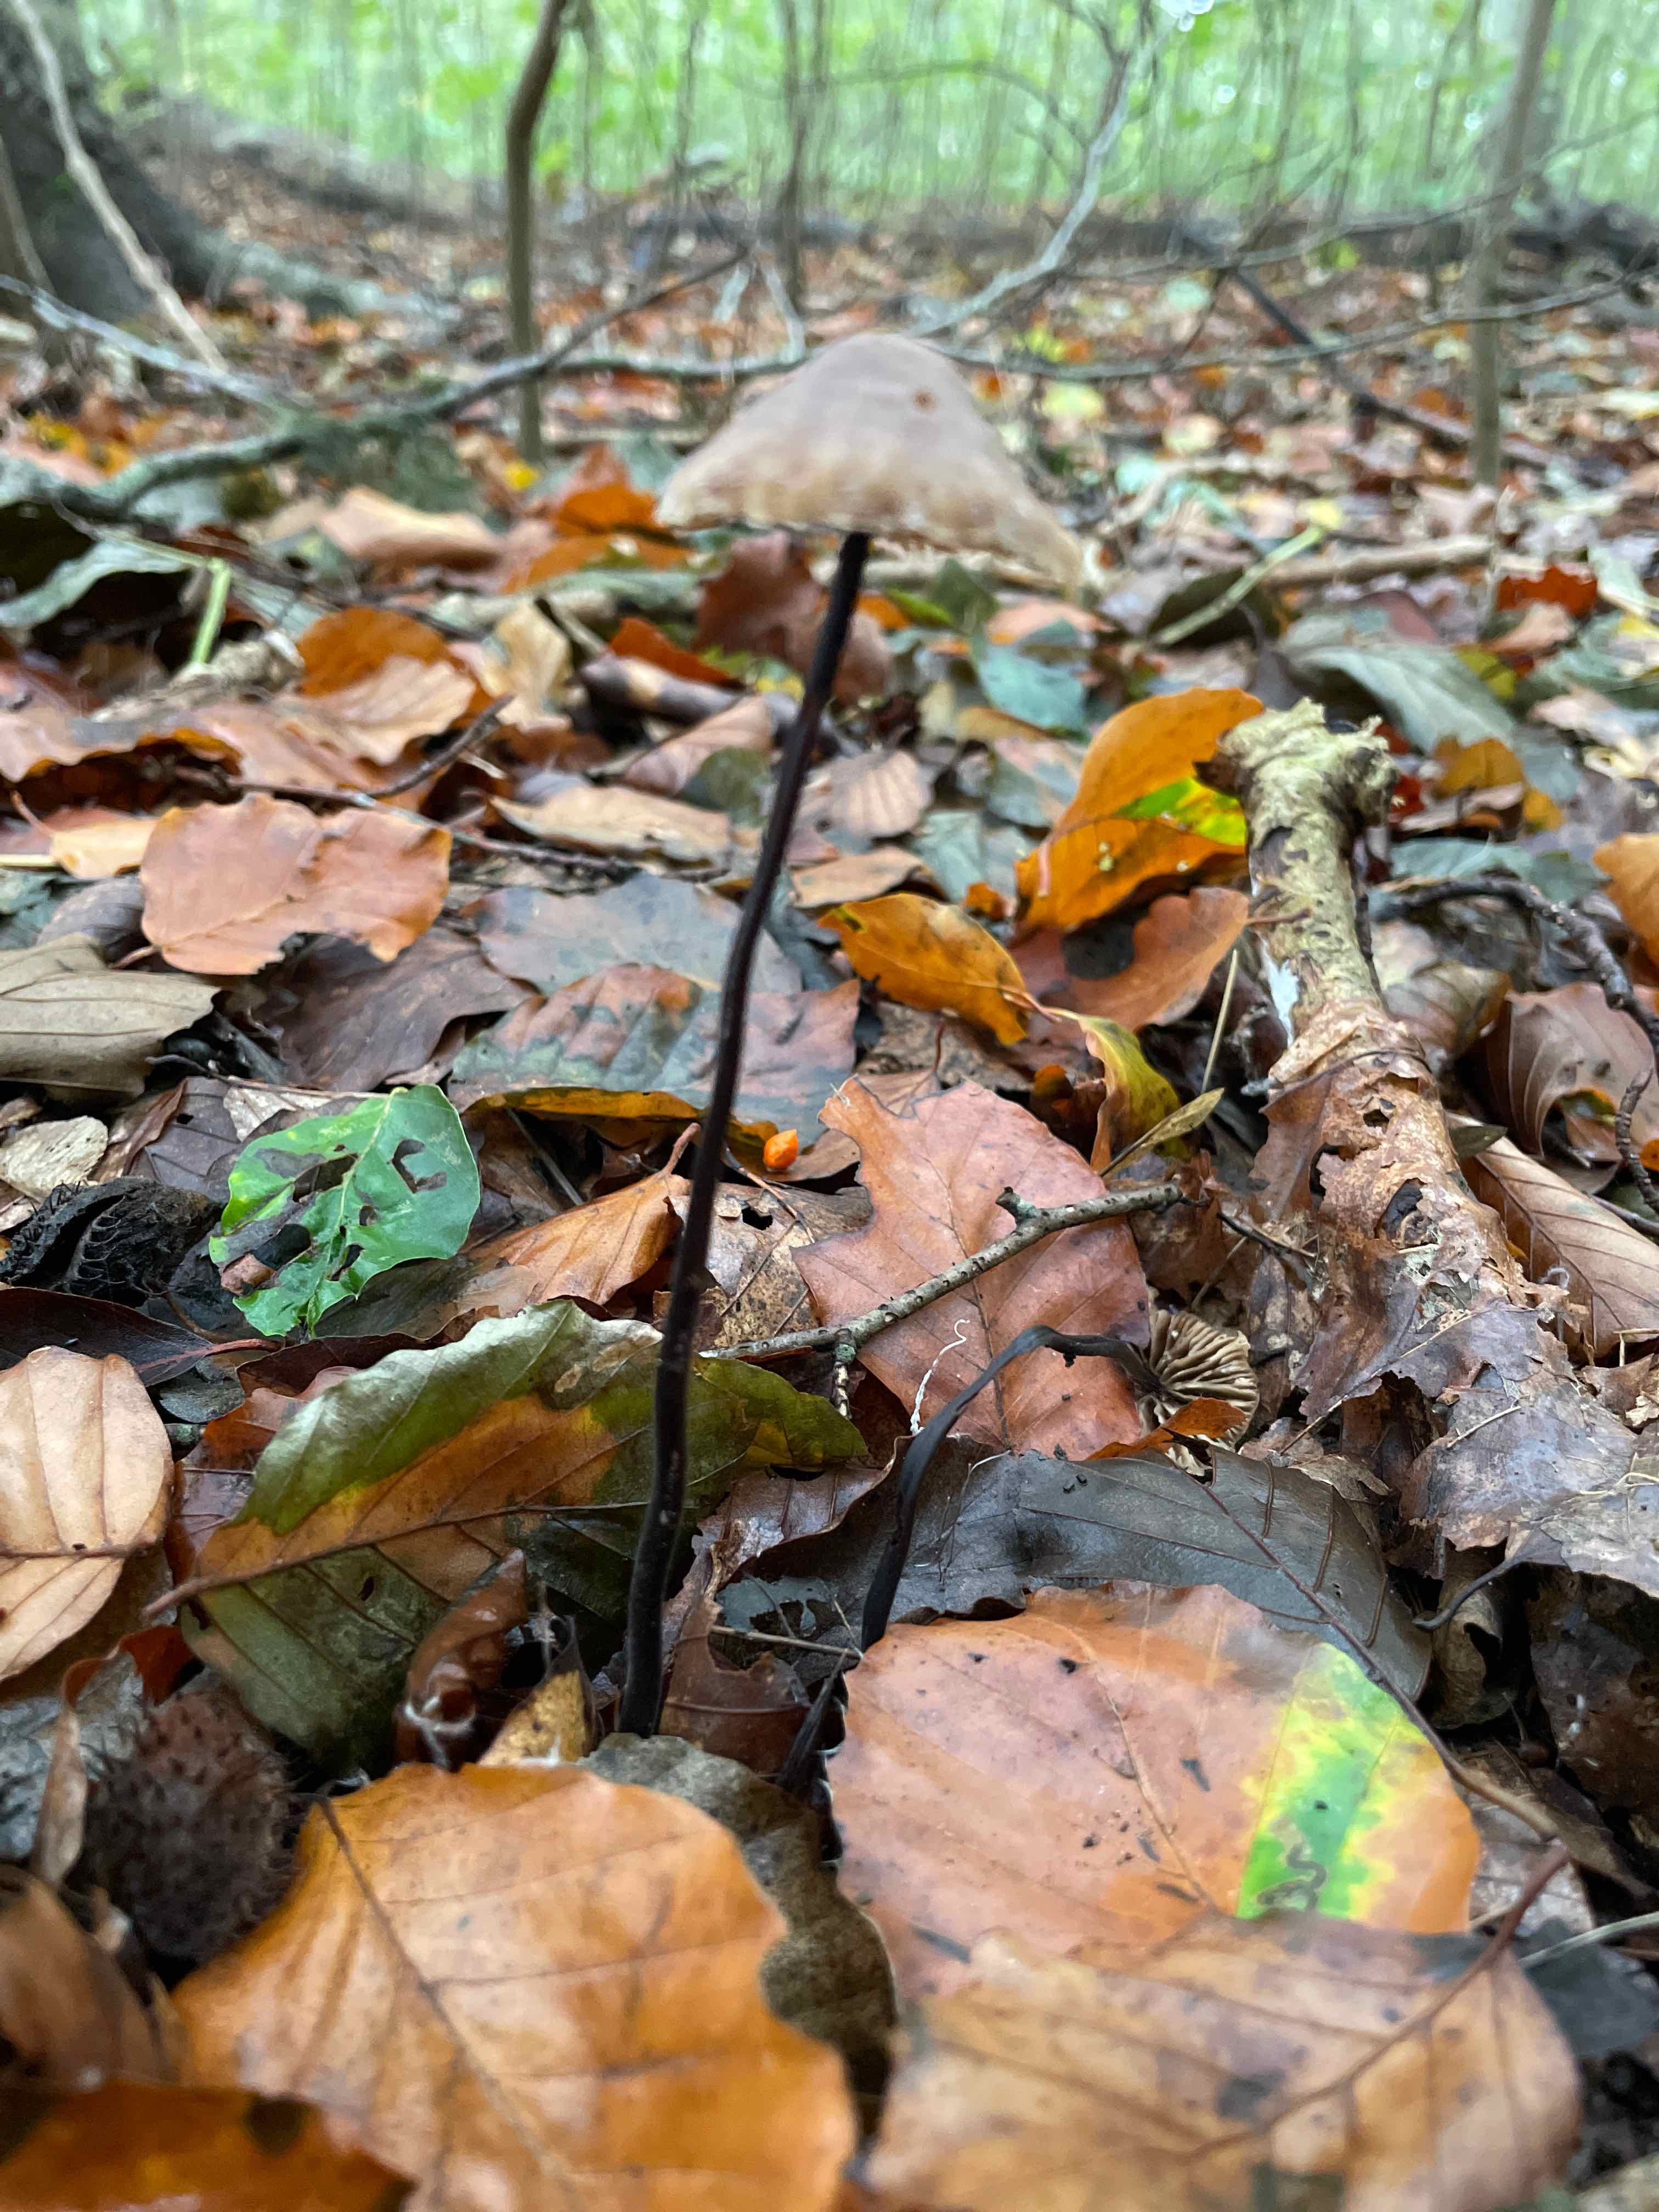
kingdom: Fungi
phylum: Basidiomycota
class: Agaricomycetes
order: Agaricales
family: Omphalotaceae
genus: Mycetinis
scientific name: Mycetinis alliaceus
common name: stor løghat
